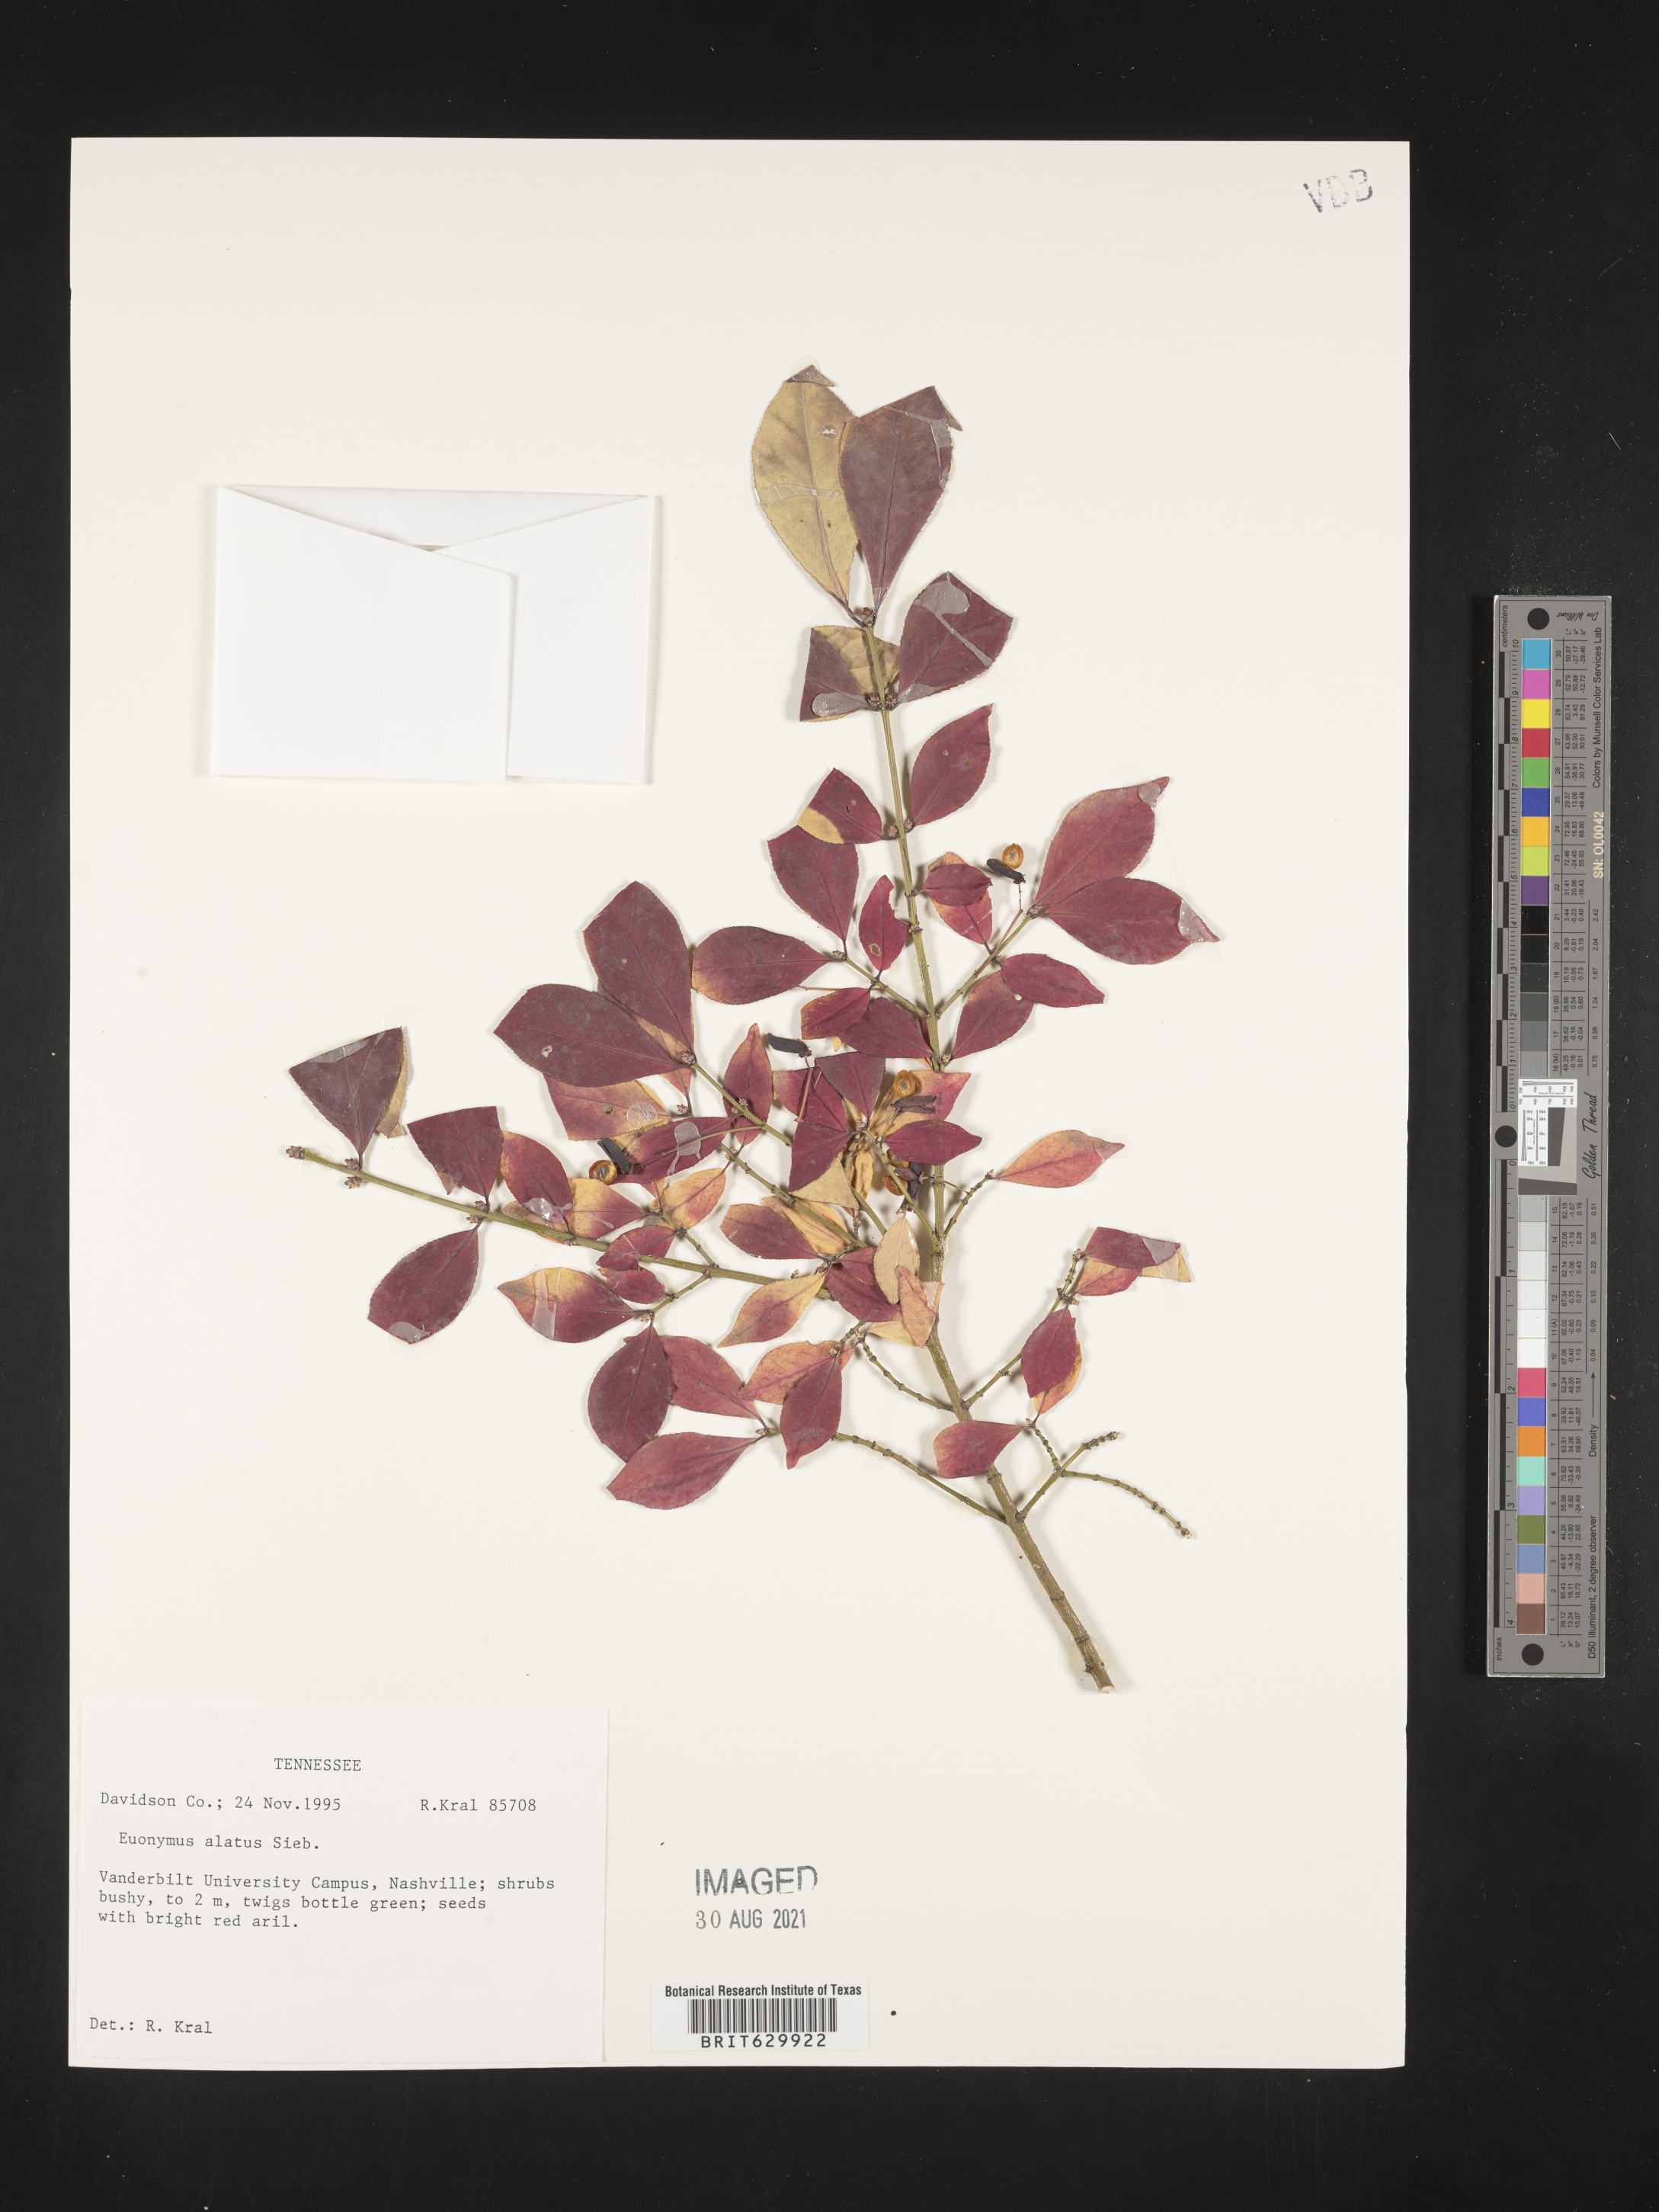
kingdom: Plantae
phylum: Tracheophyta
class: Magnoliopsida
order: Celastrales
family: Celastraceae
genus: Euonymus
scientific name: Euonymus alatus
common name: Winged euonymus
